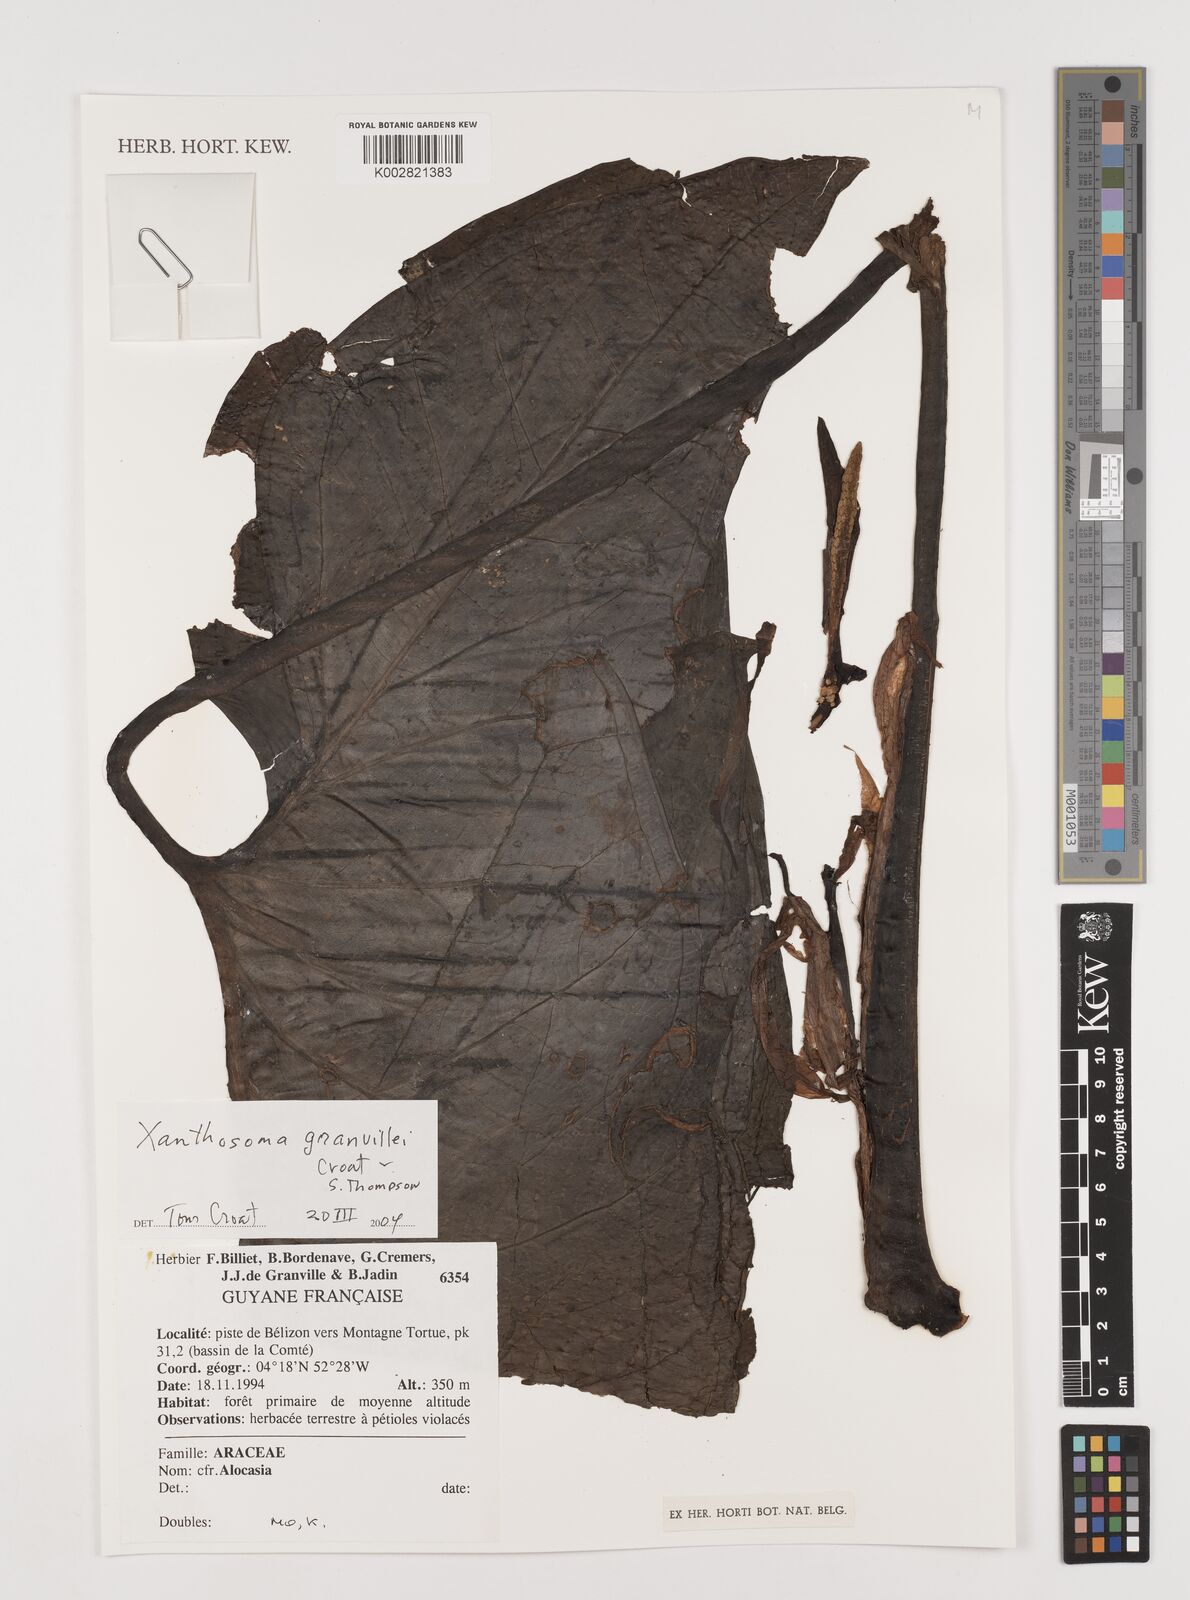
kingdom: Plantae
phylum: Tracheophyta
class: Liliopsida
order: Alismatales
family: Araceae
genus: Xanthosoma
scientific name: Xanthosoma granvillei
